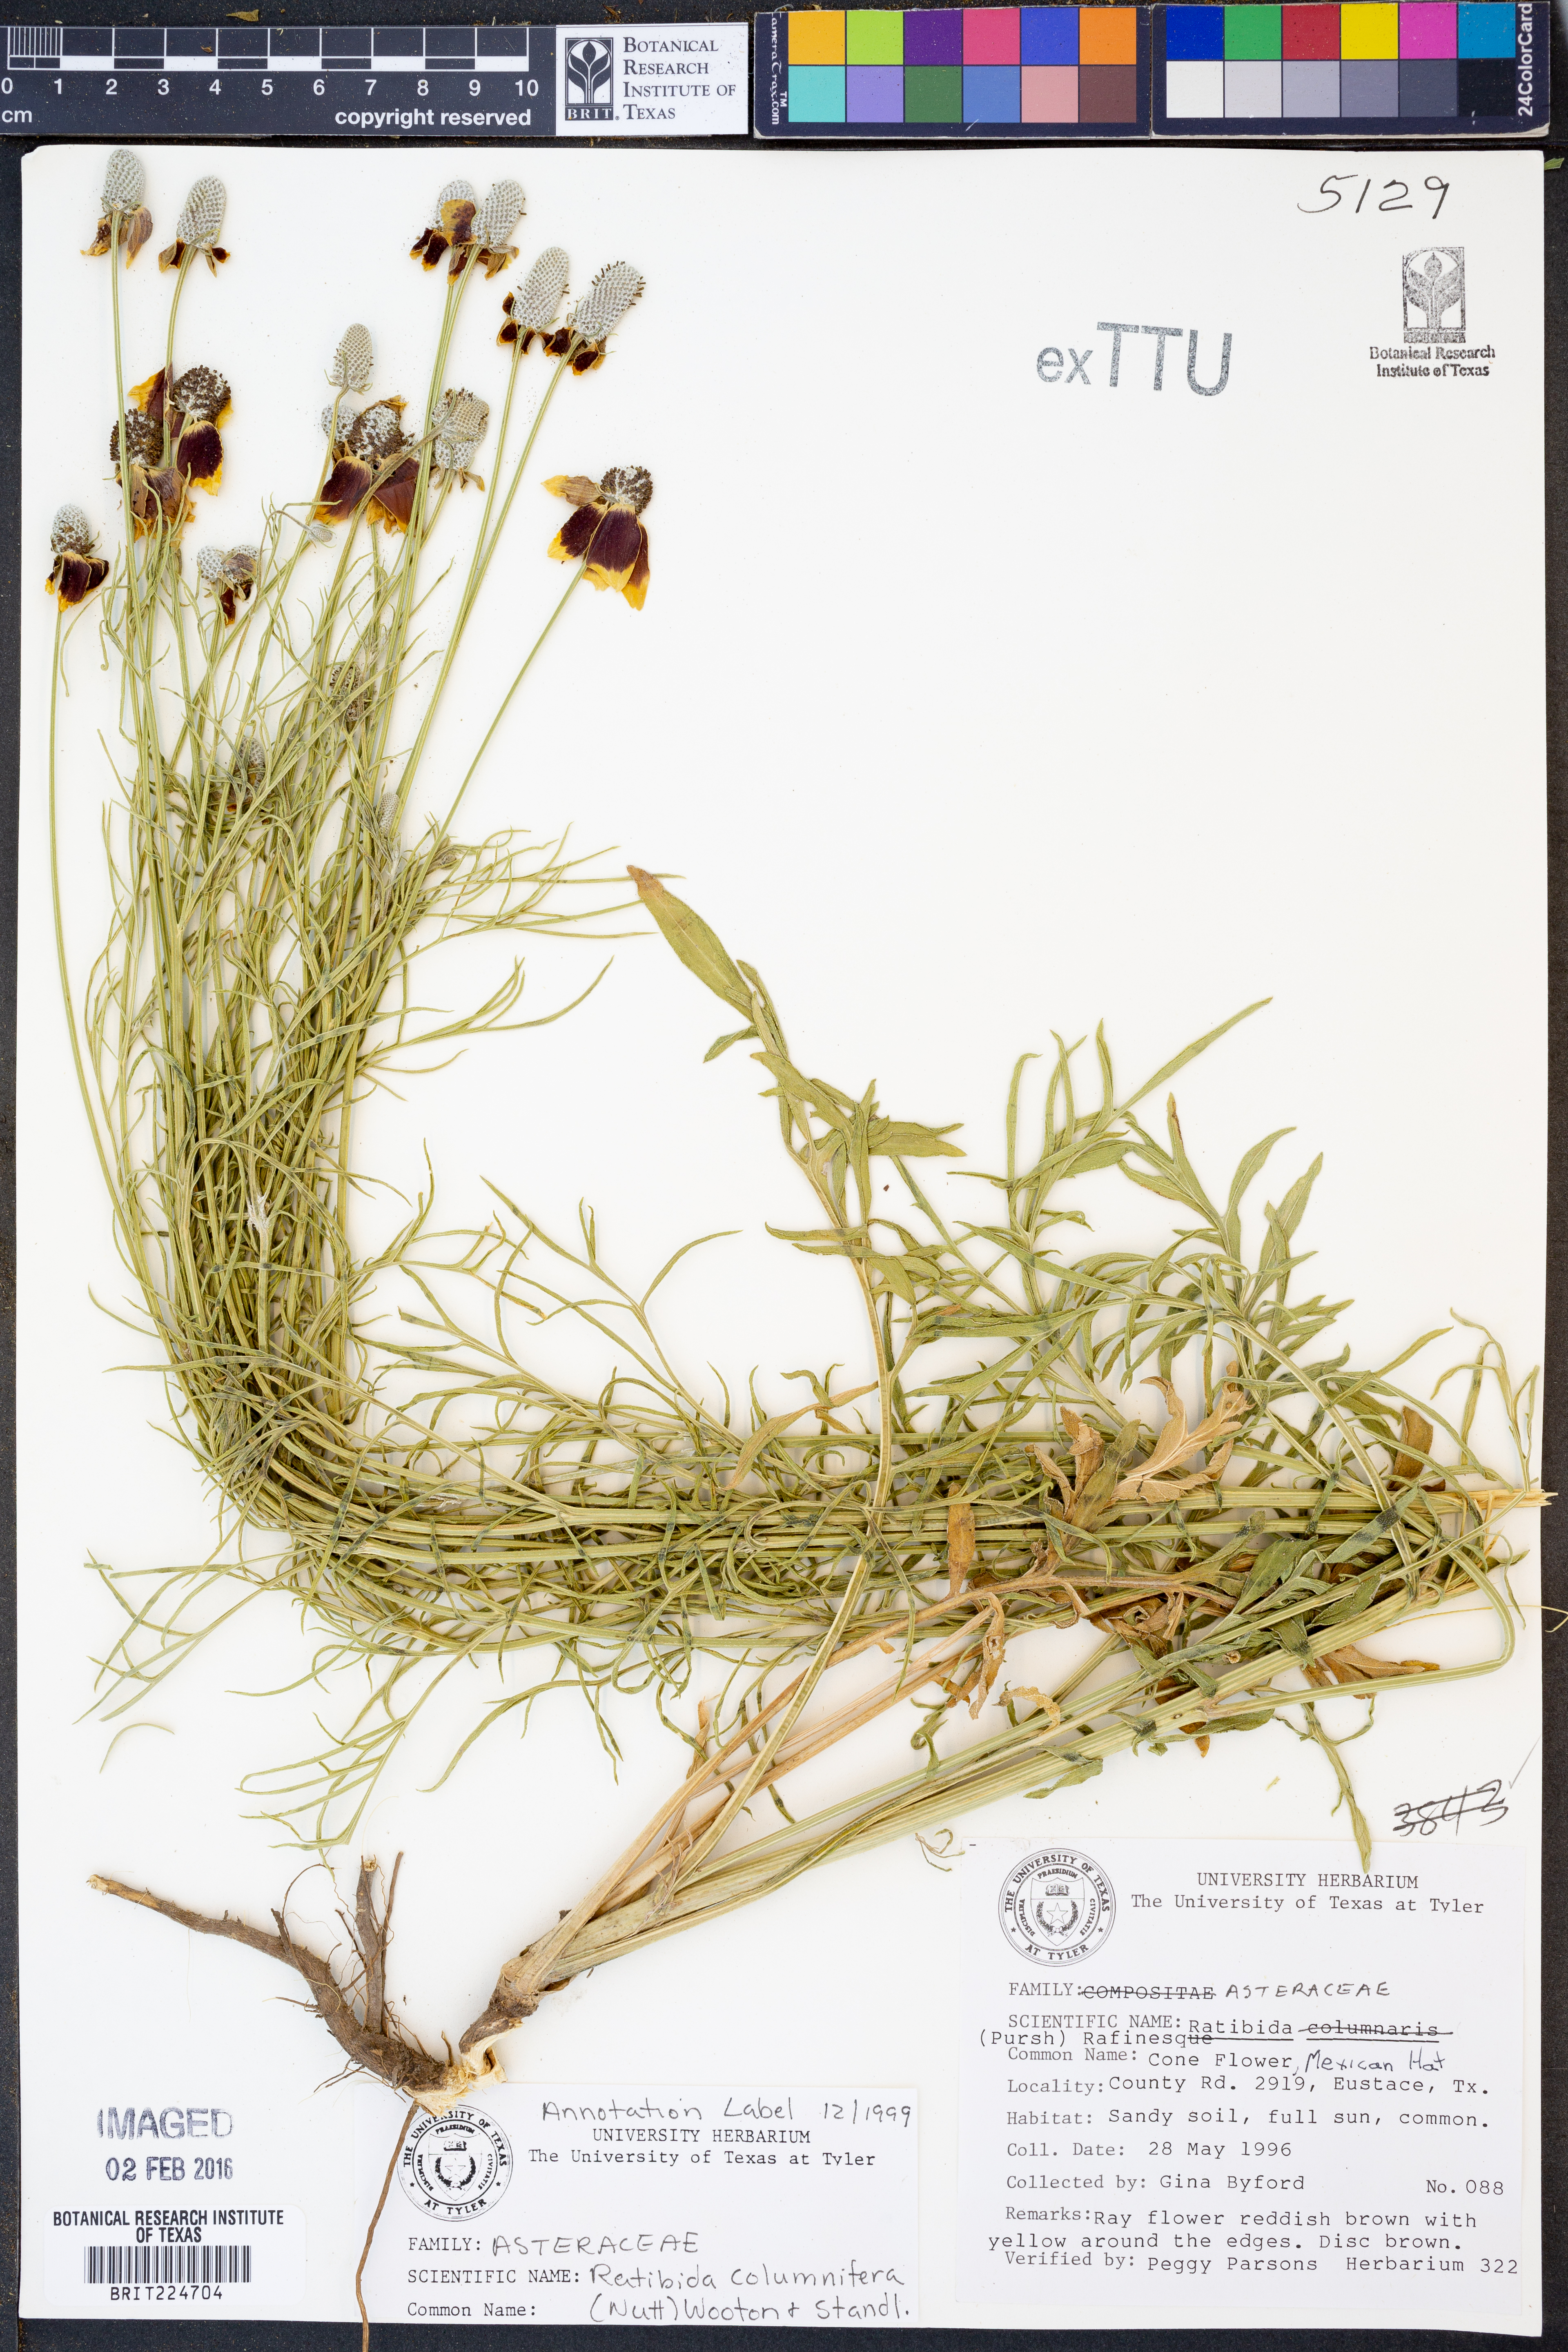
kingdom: Plantae
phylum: Tracheophyta
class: Magnoliopsida
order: Asterales
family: Asteraceae
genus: Ratibida
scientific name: Ratibida columnifera
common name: Prairie coneflower
